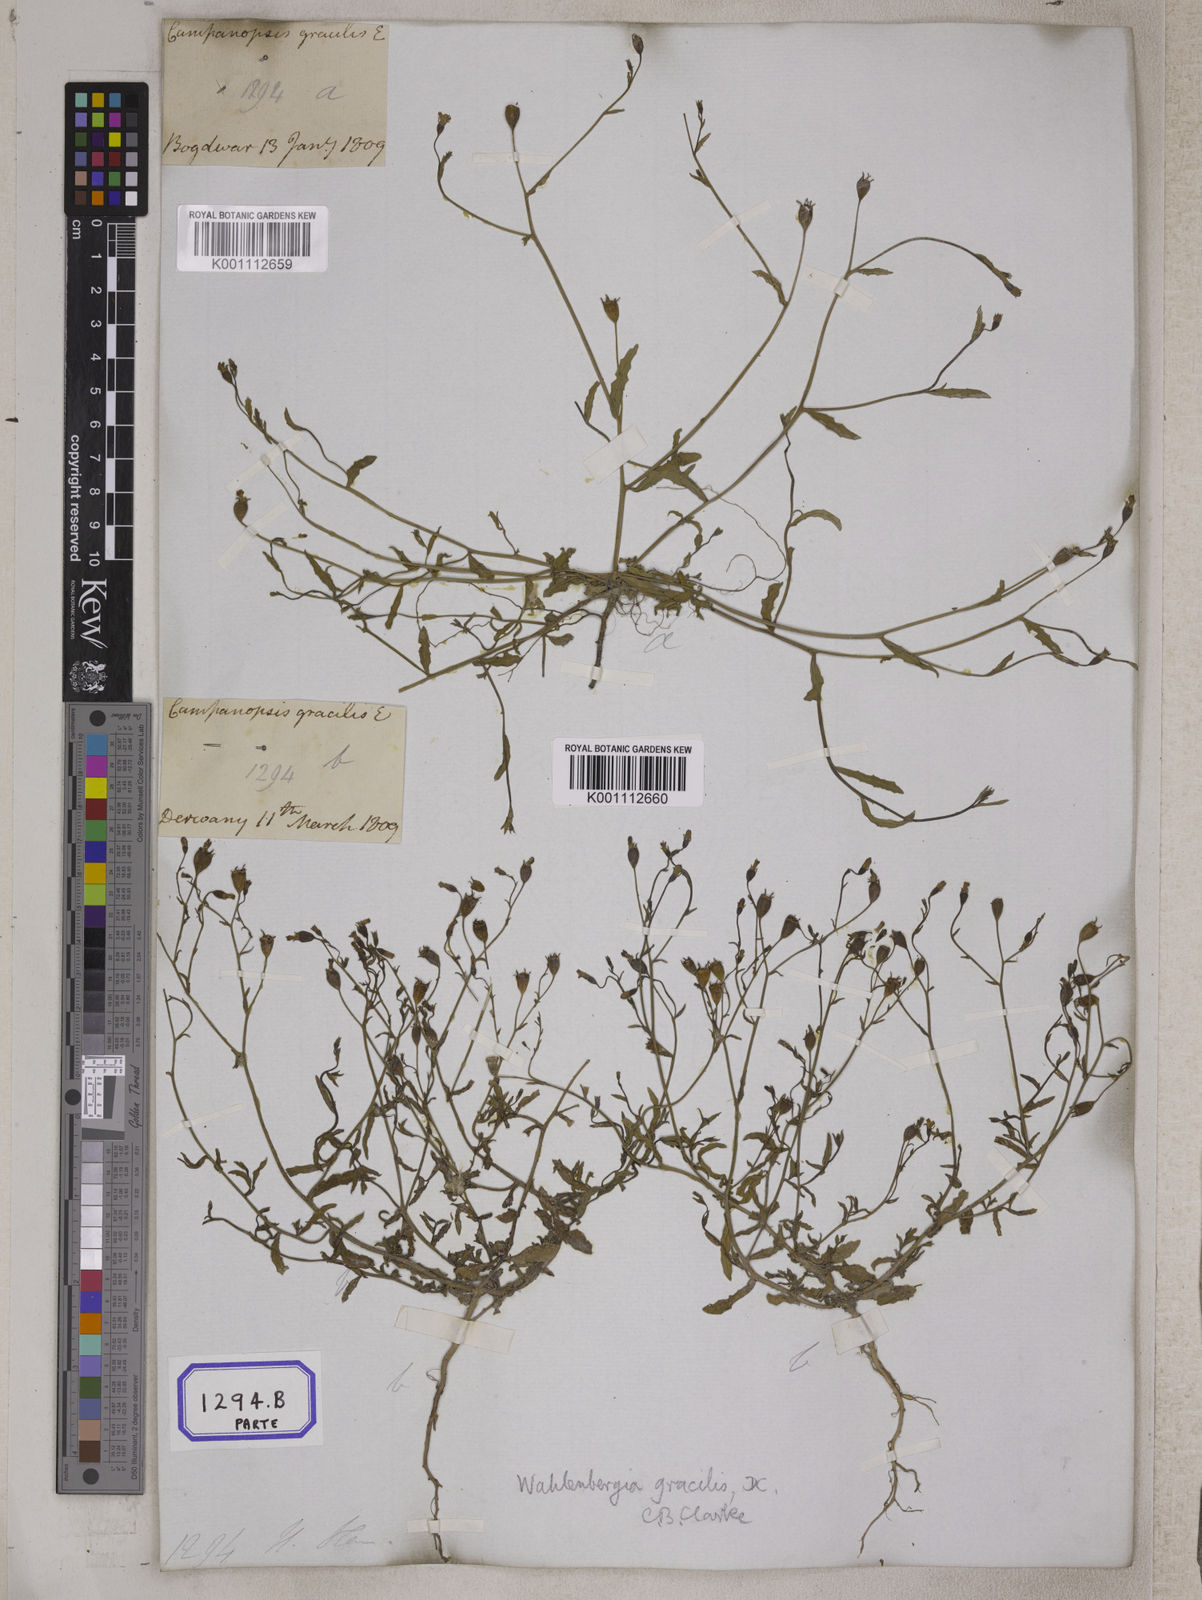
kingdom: Plantae
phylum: Tracheophyta
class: Magnoliopsida
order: Asterales
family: Campanulaceae
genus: Campanula
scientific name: Campanula
